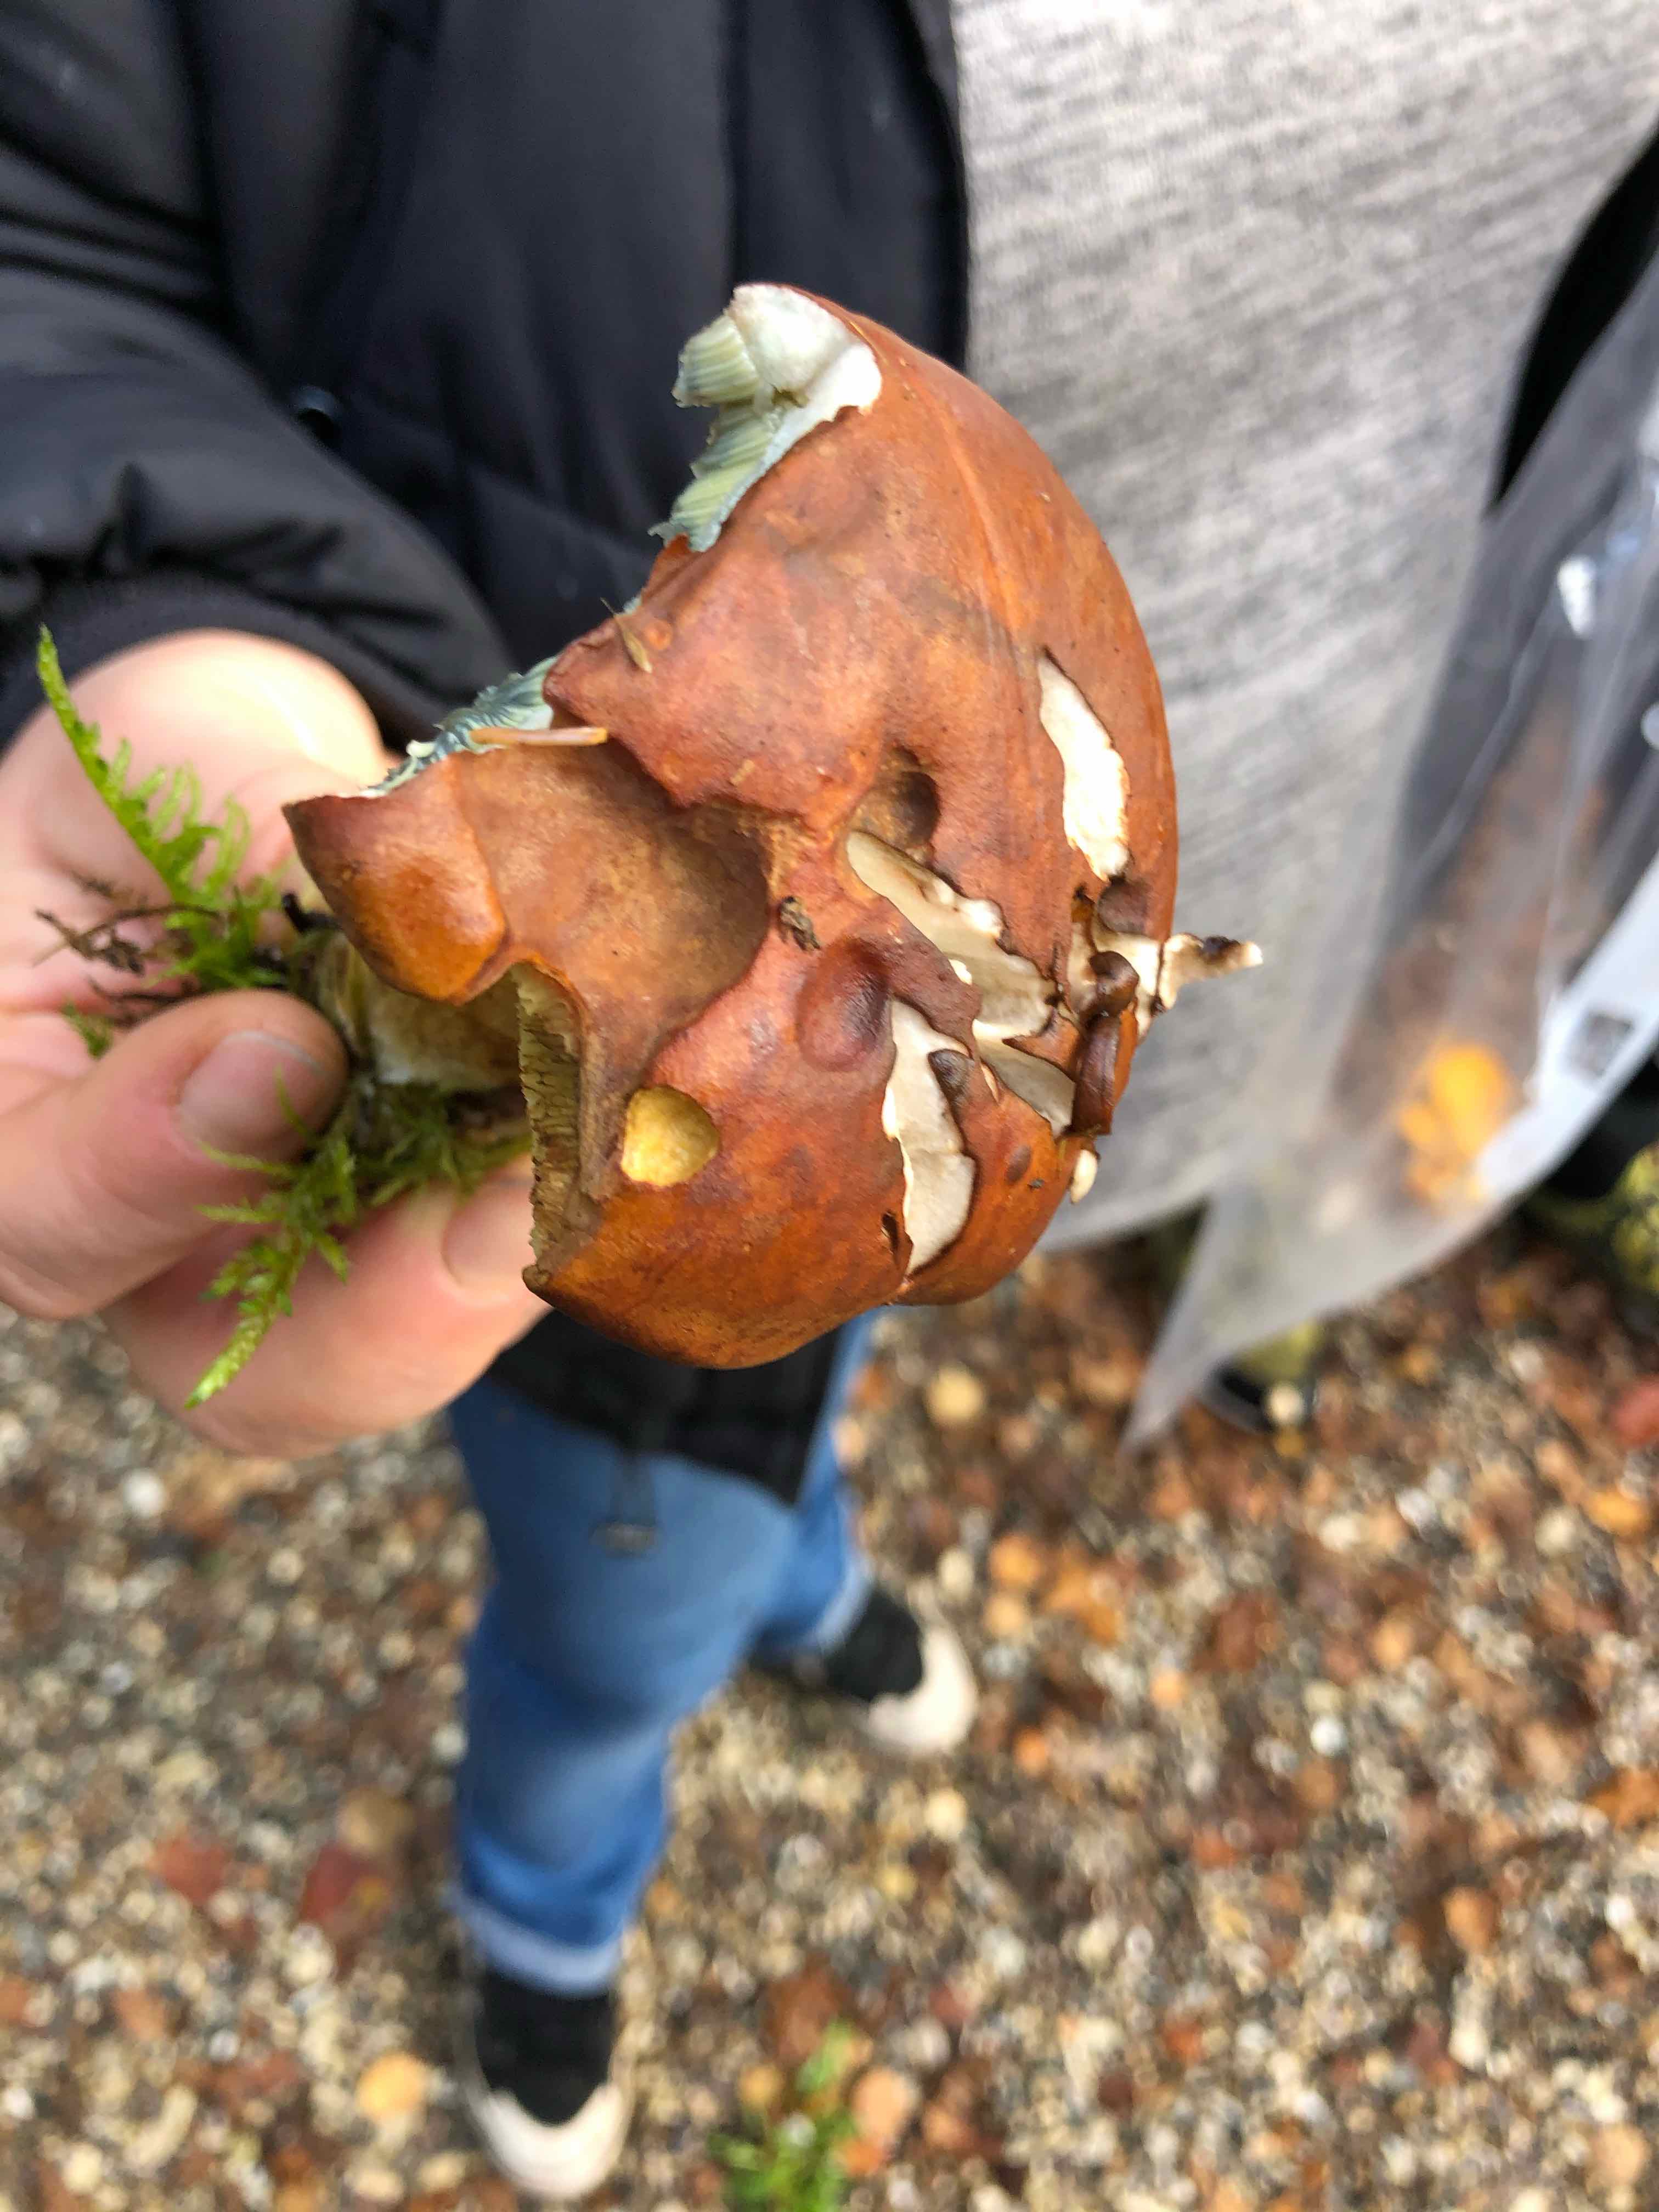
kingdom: Fungi
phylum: Basidiomycota
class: Agaricomycetes
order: Boletales
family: Boletaceae
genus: Imleria
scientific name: Imleria badia
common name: brunstokket rørhat
